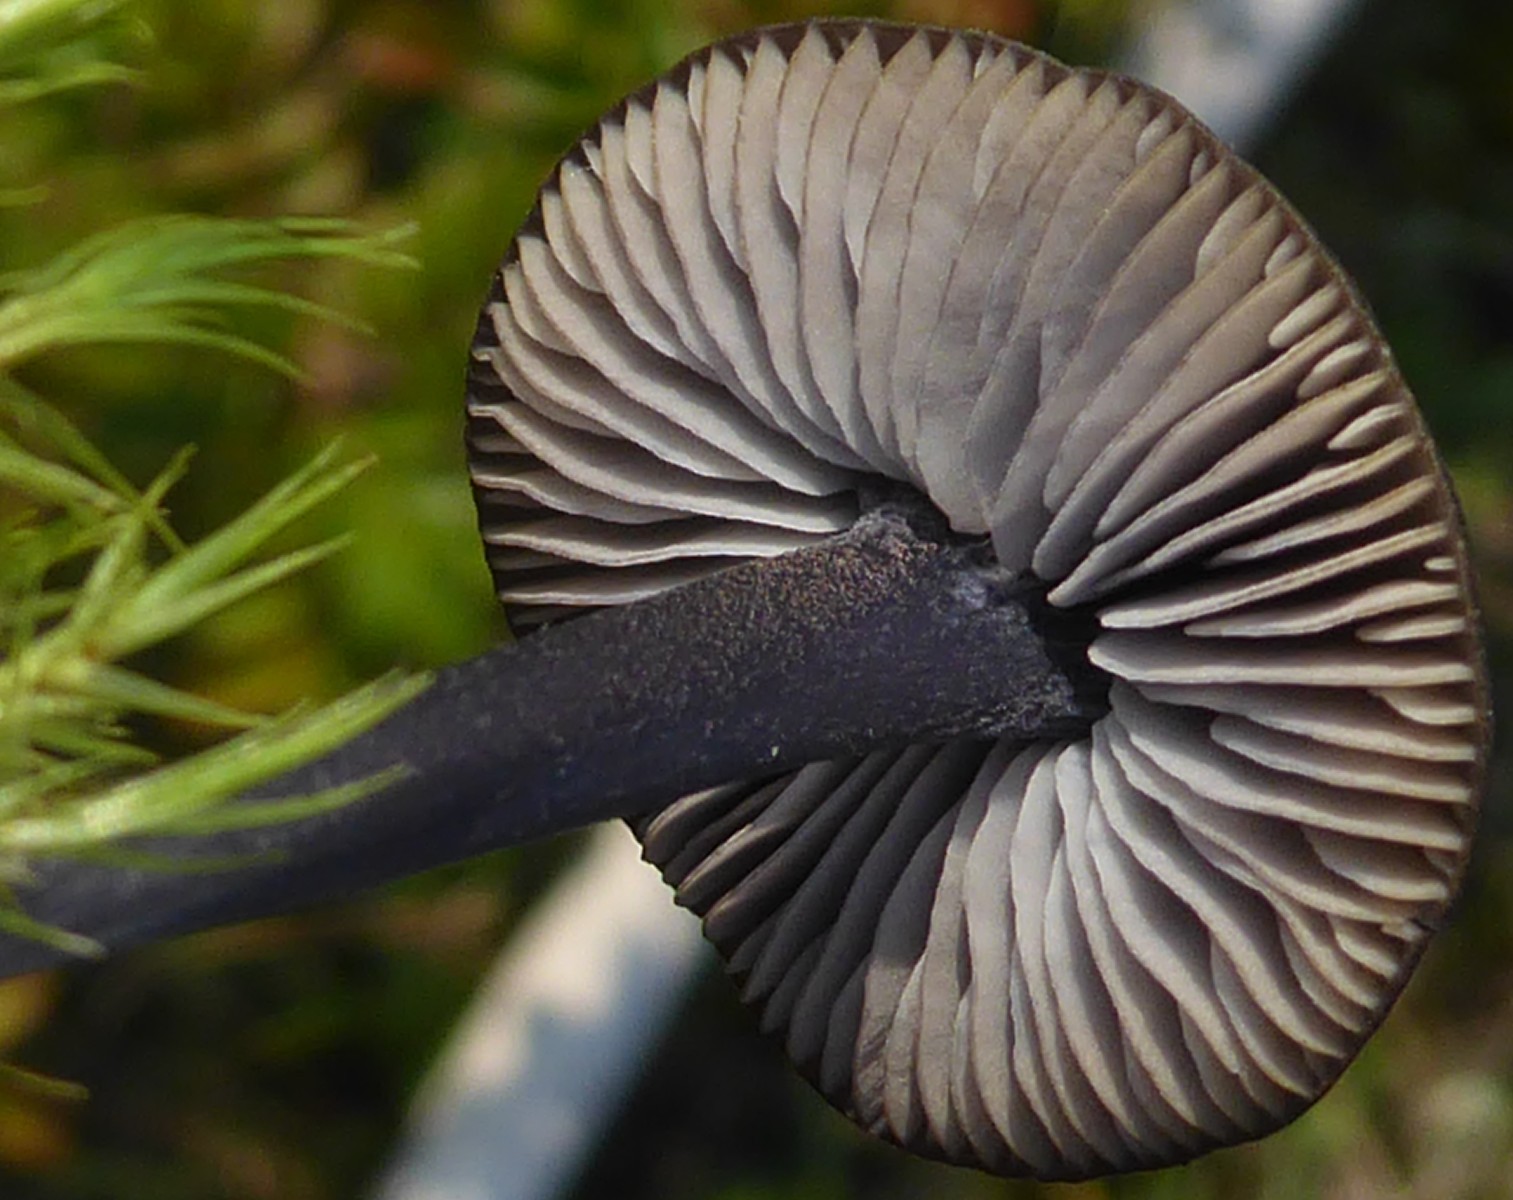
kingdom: Fungi
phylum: Basidiomycota
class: Agaricomycetes
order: Agaricales
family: Entolomataceae
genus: Entoloma
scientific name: Entoloma
